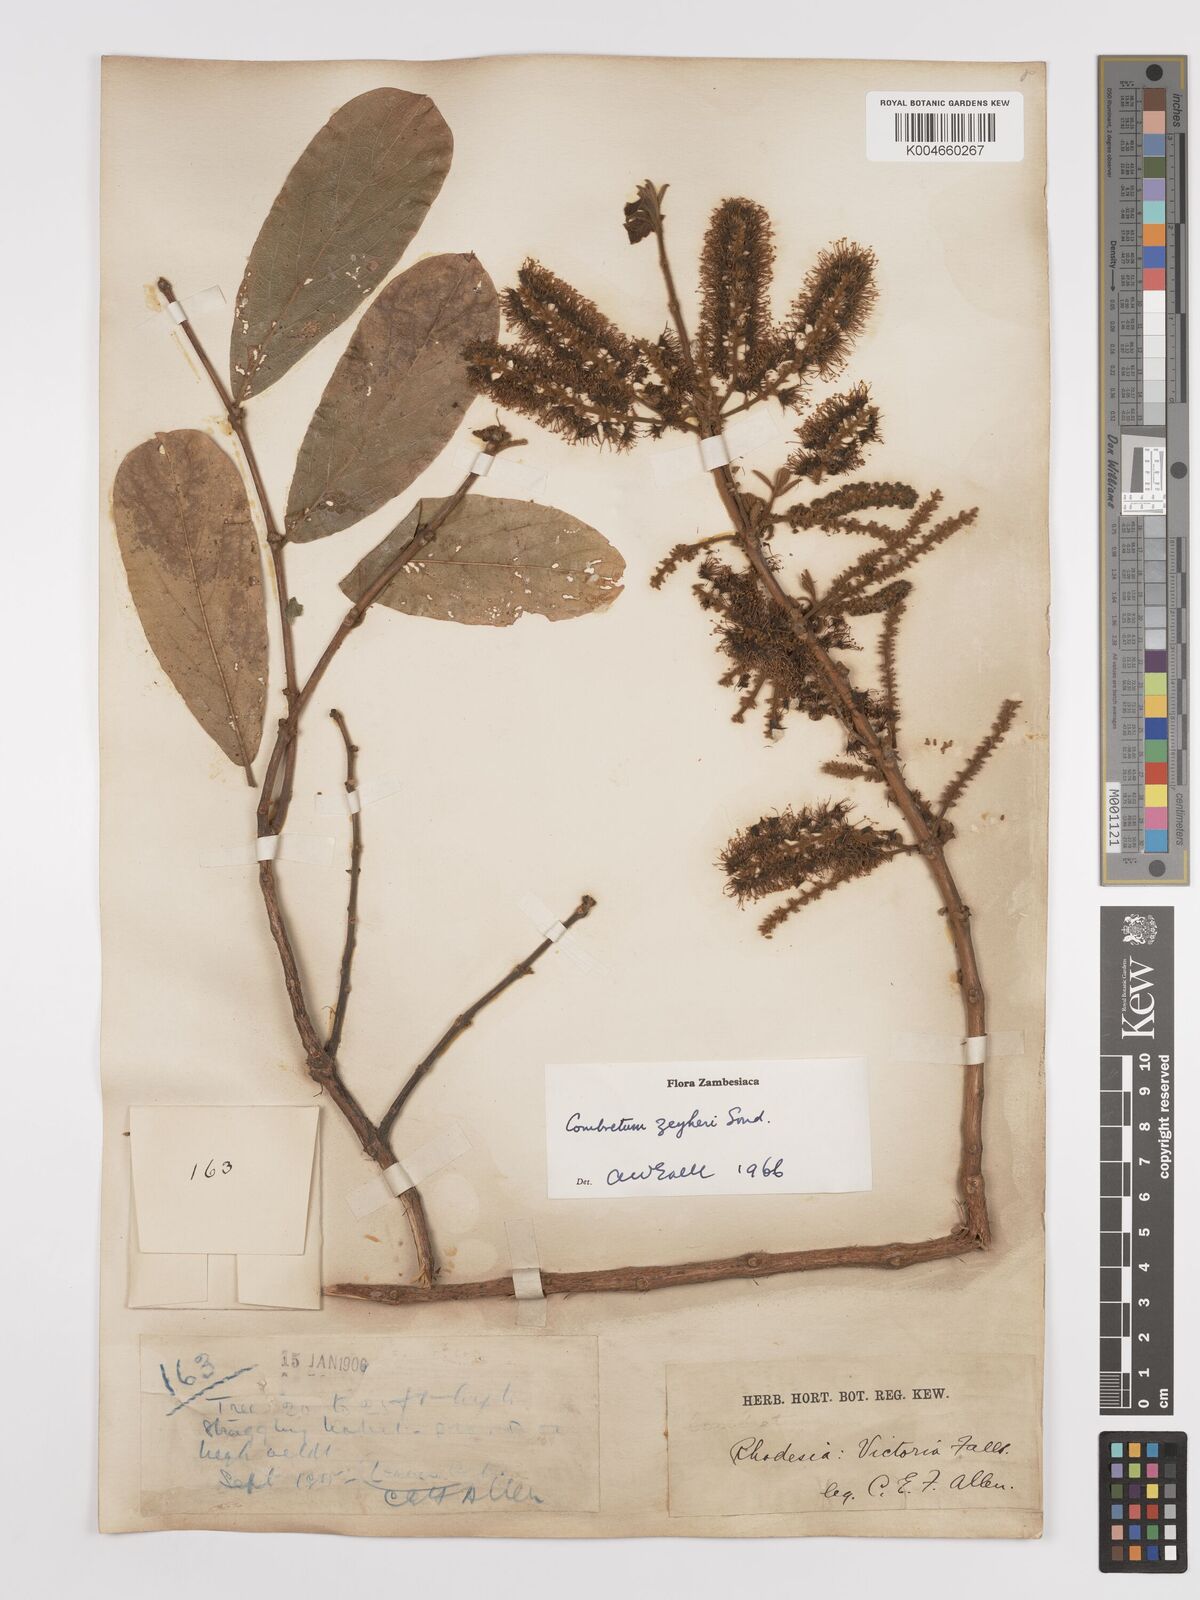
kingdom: Plantae
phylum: Tracheophyta
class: Magnoliopsida
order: Myrtales
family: Combretaceae
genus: Combretum
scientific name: Combretum zeyheri
